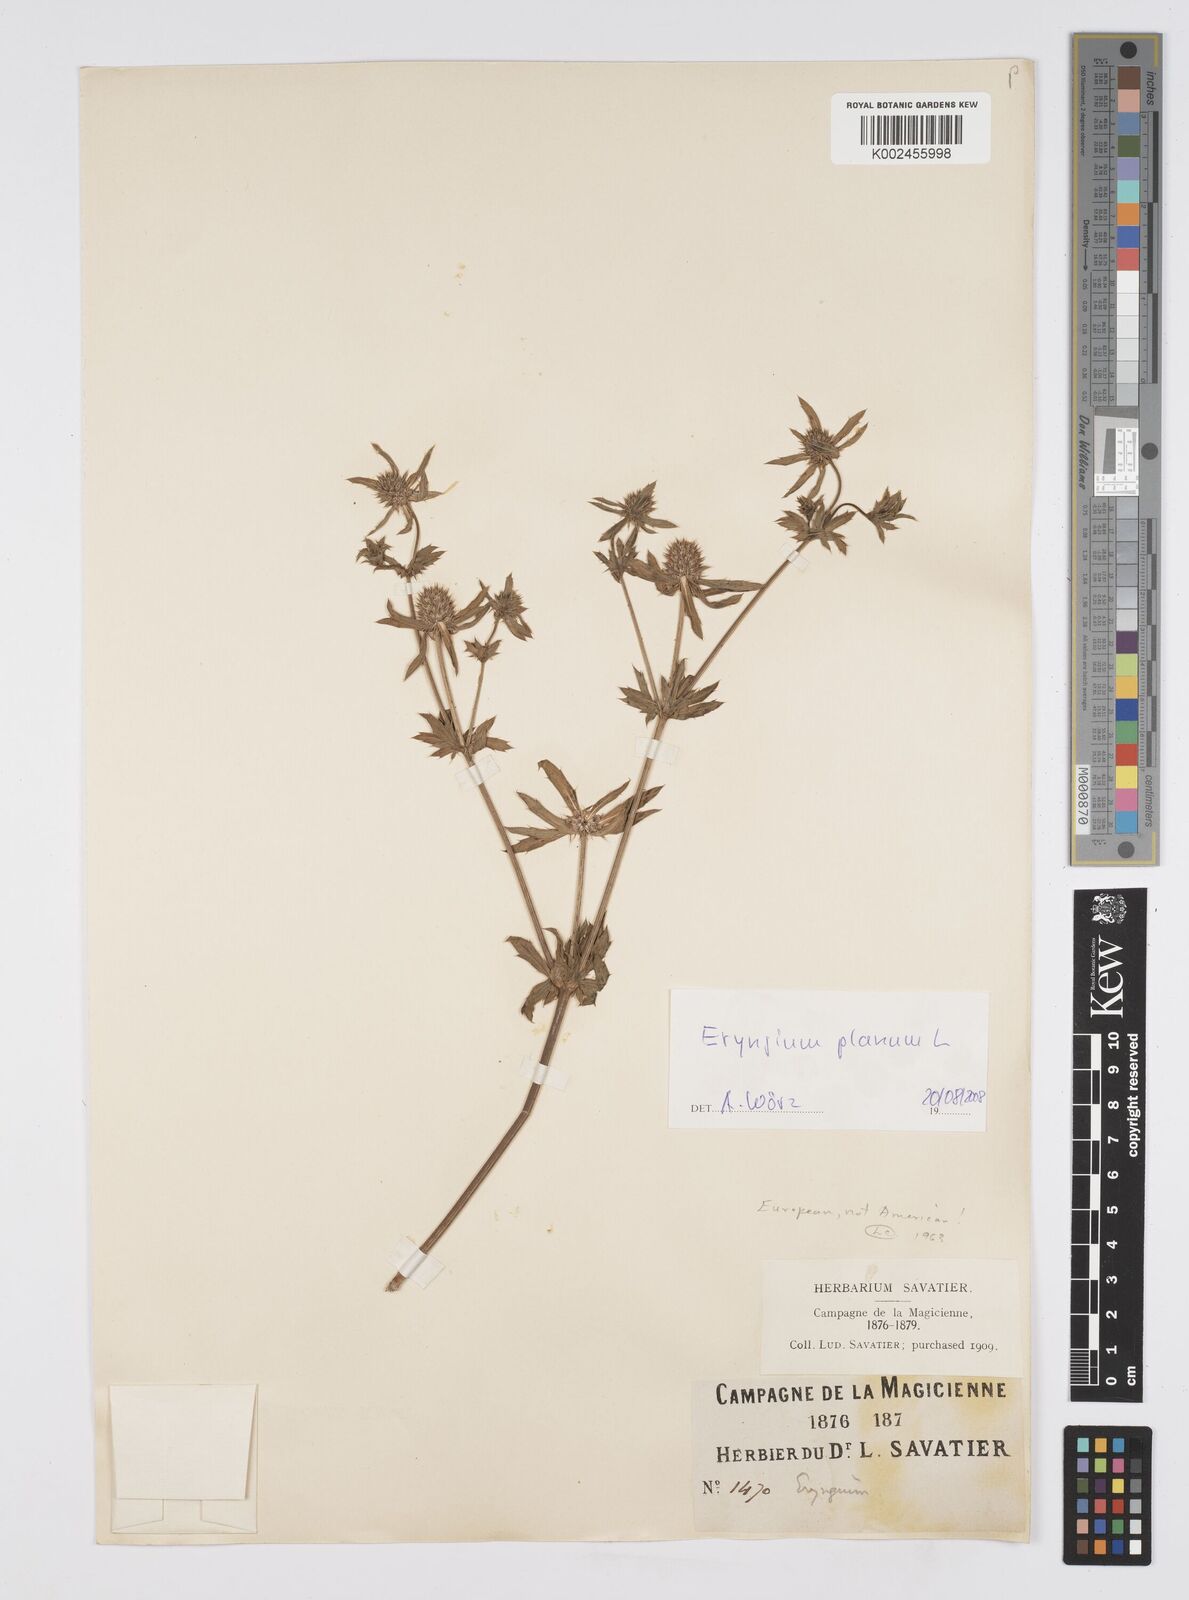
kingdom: Plantae
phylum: Tracheophyta
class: Magnoliopsida
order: Apiales
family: Apiaceae
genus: Eryngium
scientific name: Eryngium planum
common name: Blue eryngo
